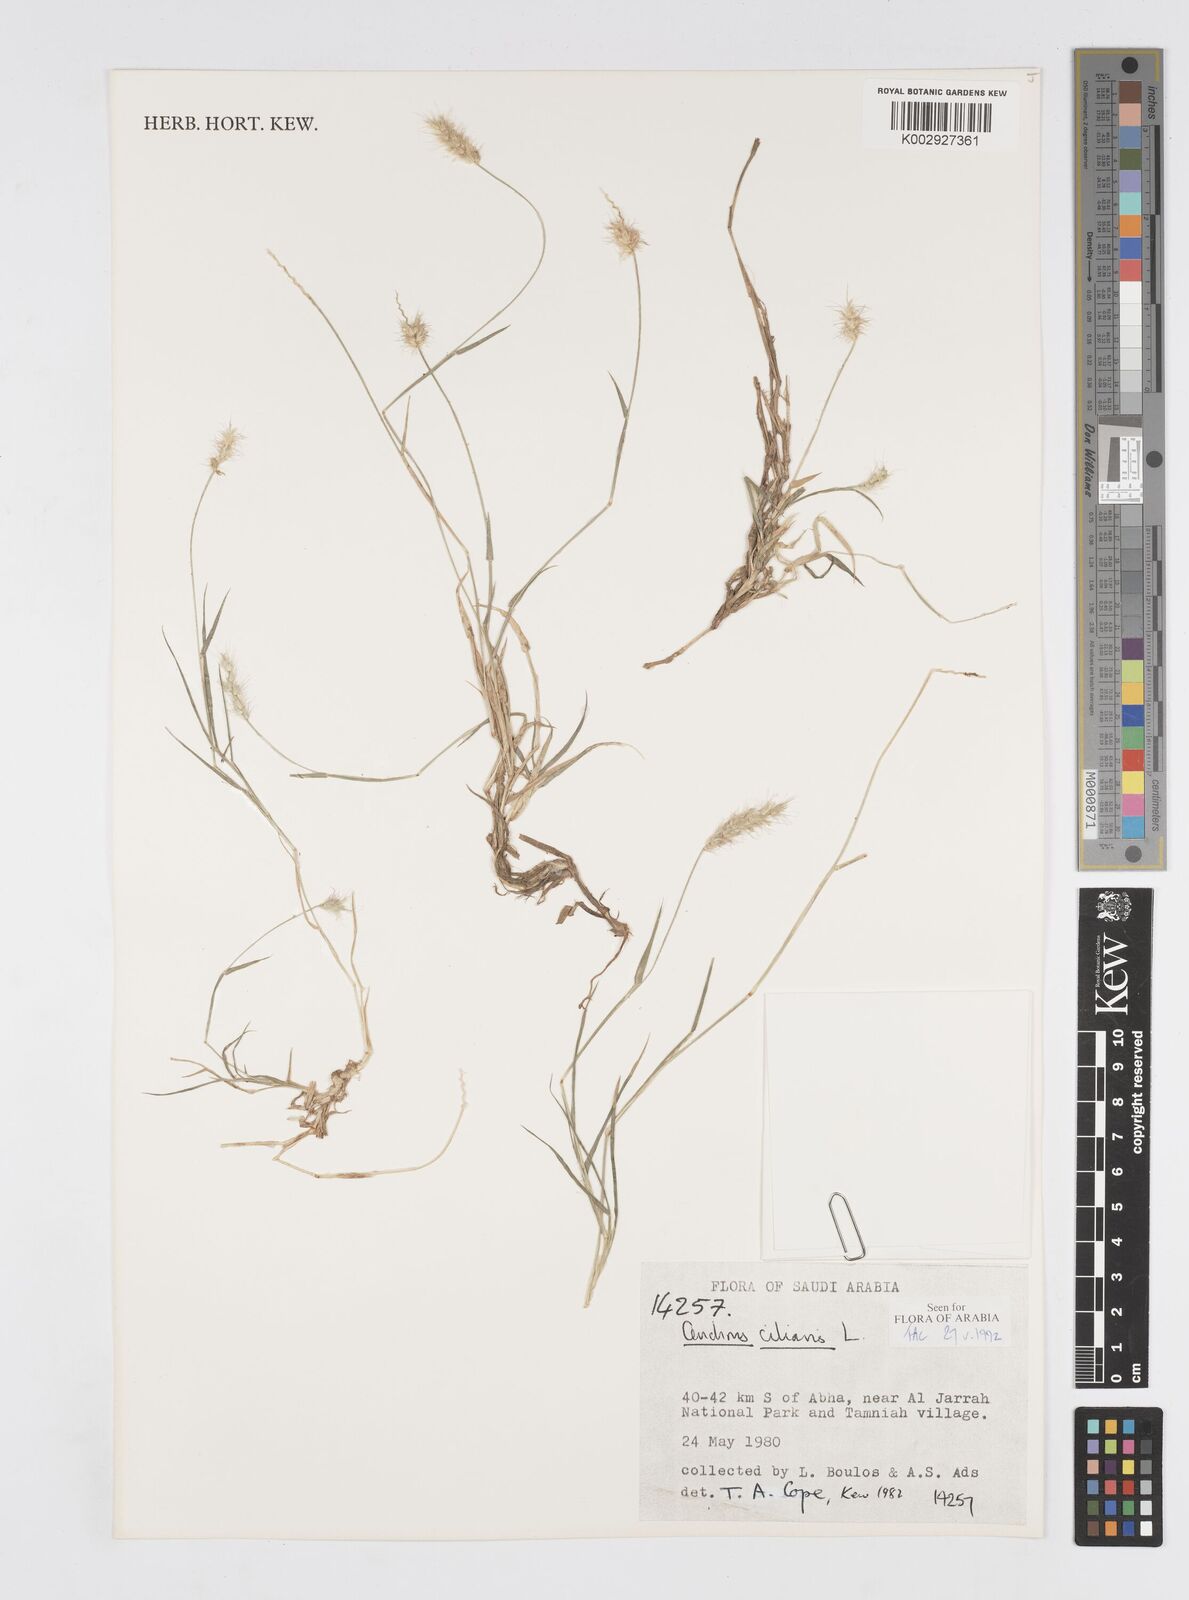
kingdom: Plantae
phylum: Tracheophyta
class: Liliopsida
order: Poales
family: Poaceae
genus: Cenchrus
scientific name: Cenchrus ciliaris
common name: Buffelgrass
